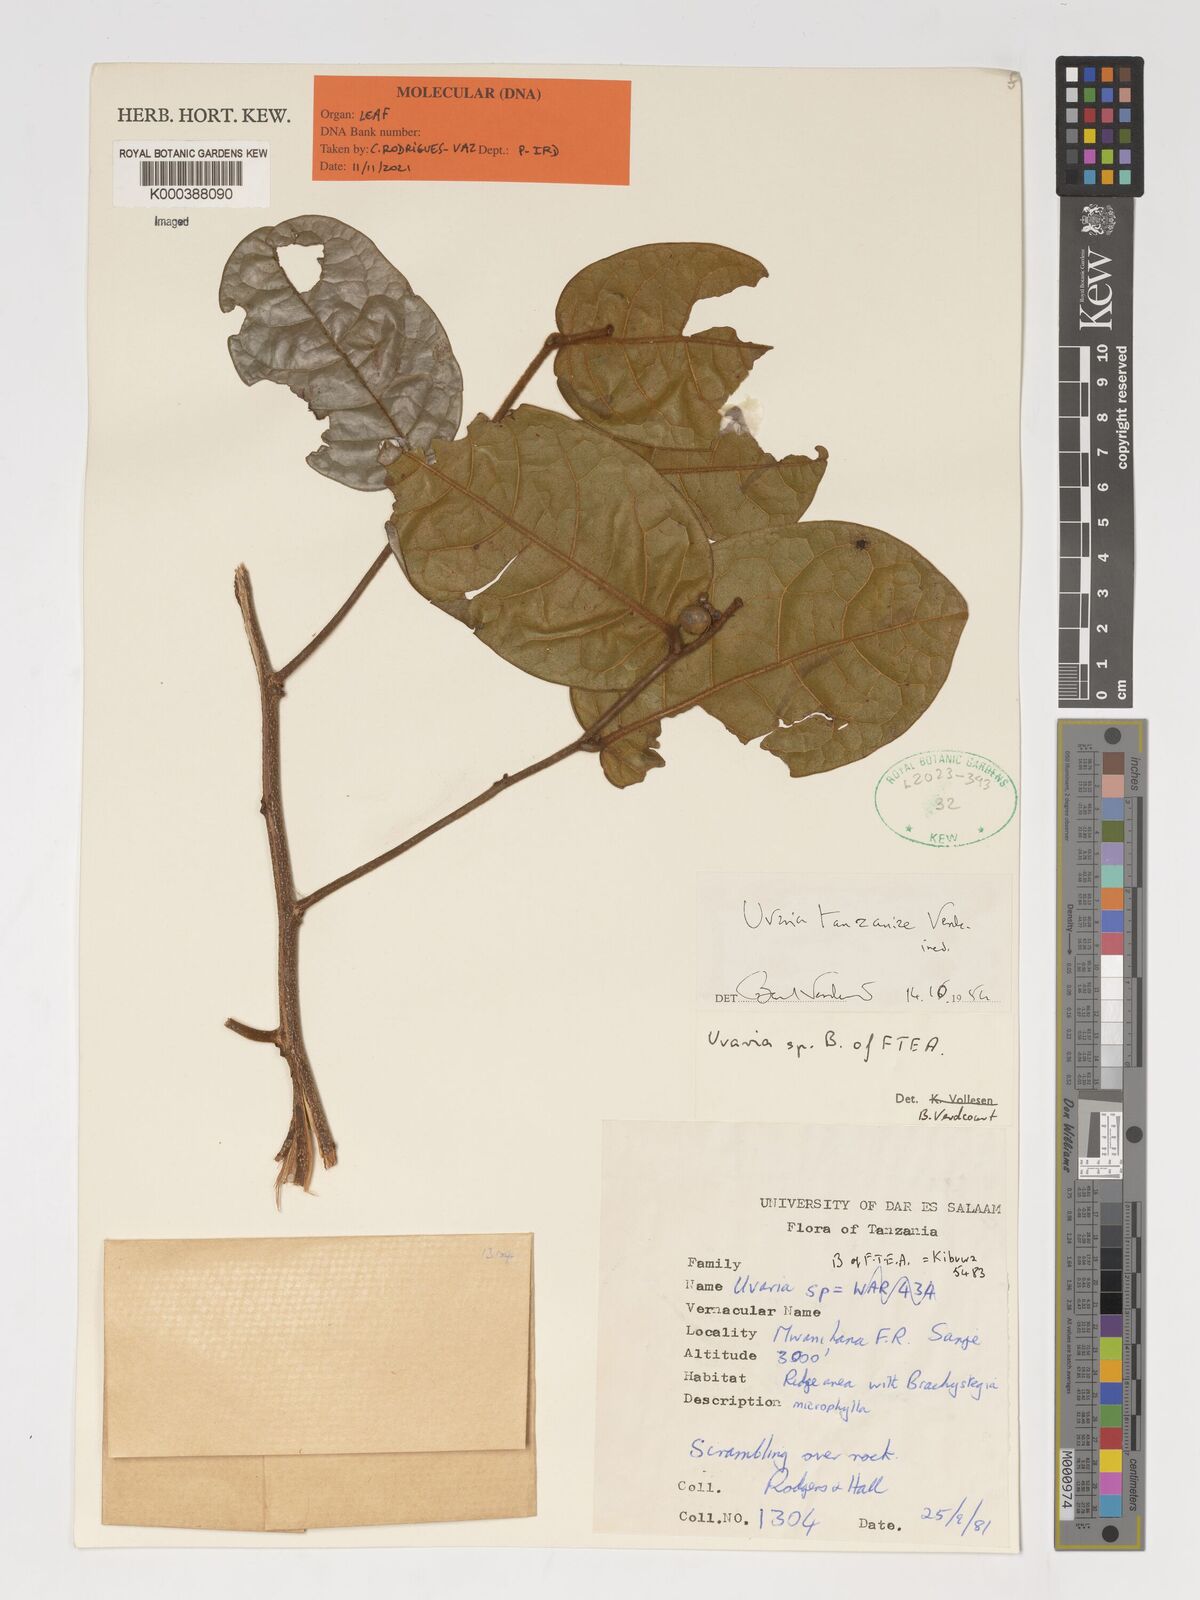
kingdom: Plantae
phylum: Tracheophyta
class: Magnoliopsida
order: Magnoliales
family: Annonaceae
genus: Uvaria
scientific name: Uvaria tanzaniae
